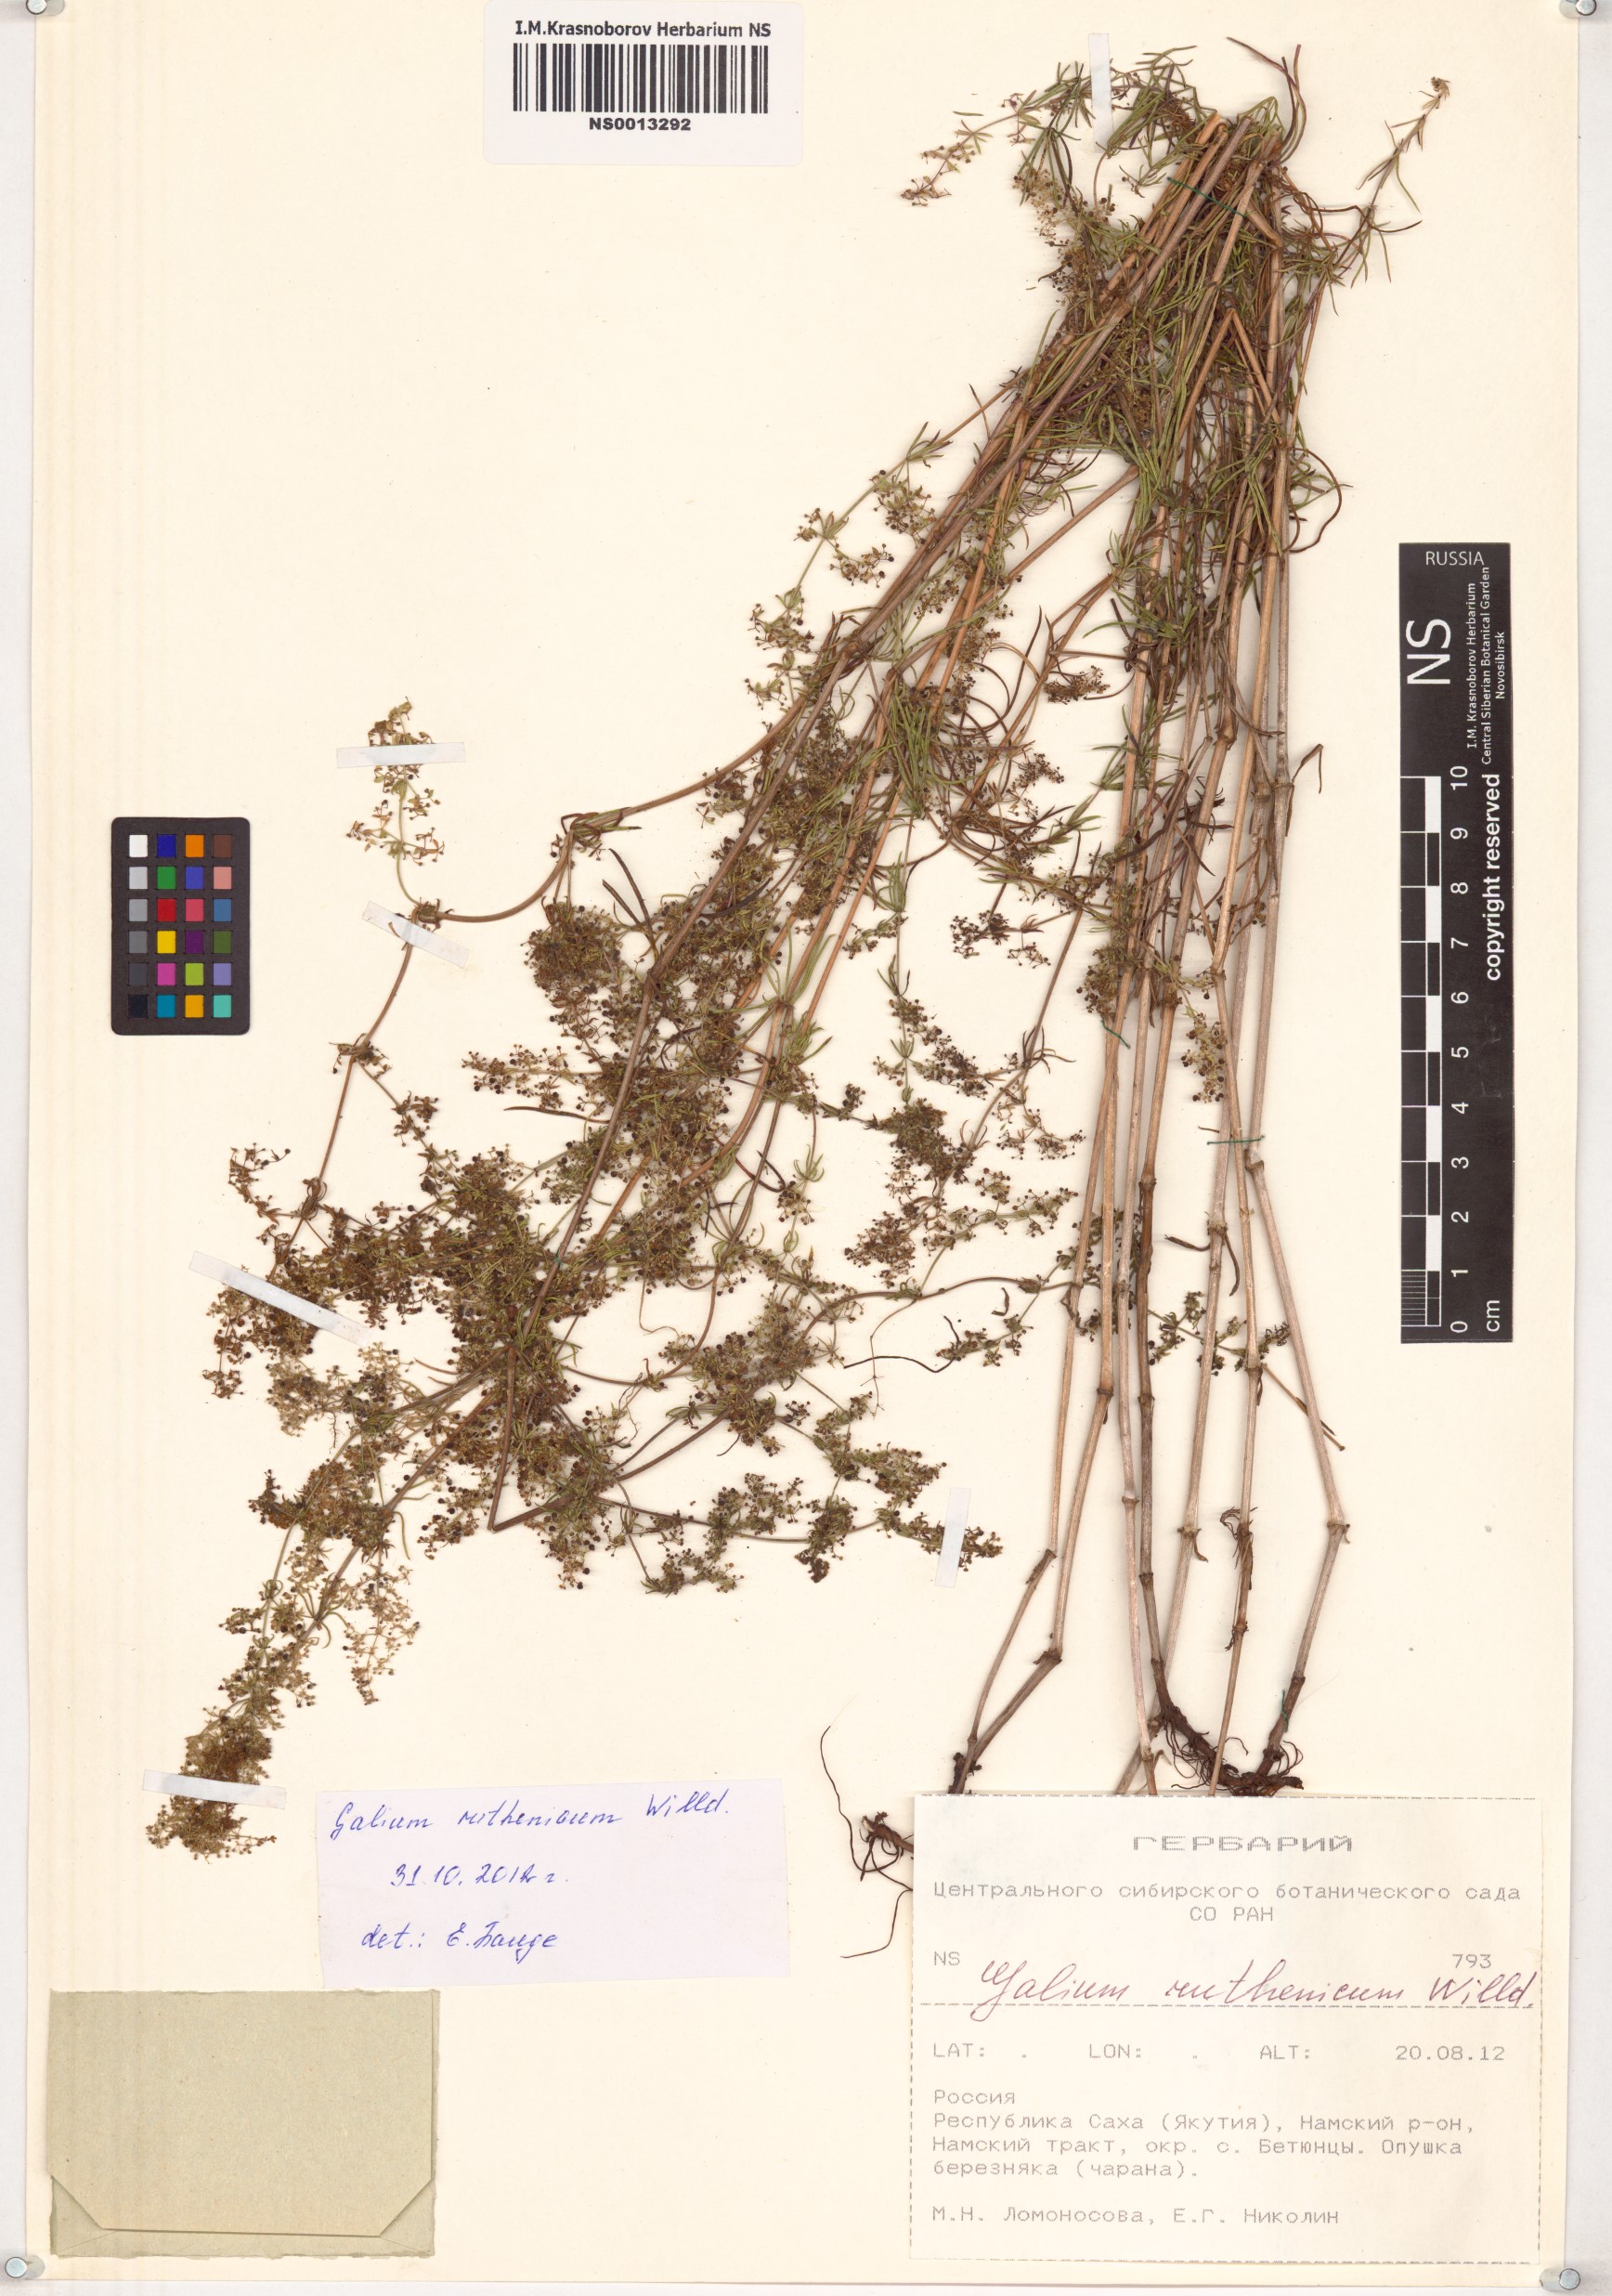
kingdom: Plantae
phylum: Tracheophyta
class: Magnoliopsida
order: Gentianales
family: Rubiaceae
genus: Galium
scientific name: Galium verum
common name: Lady's bedstraw
